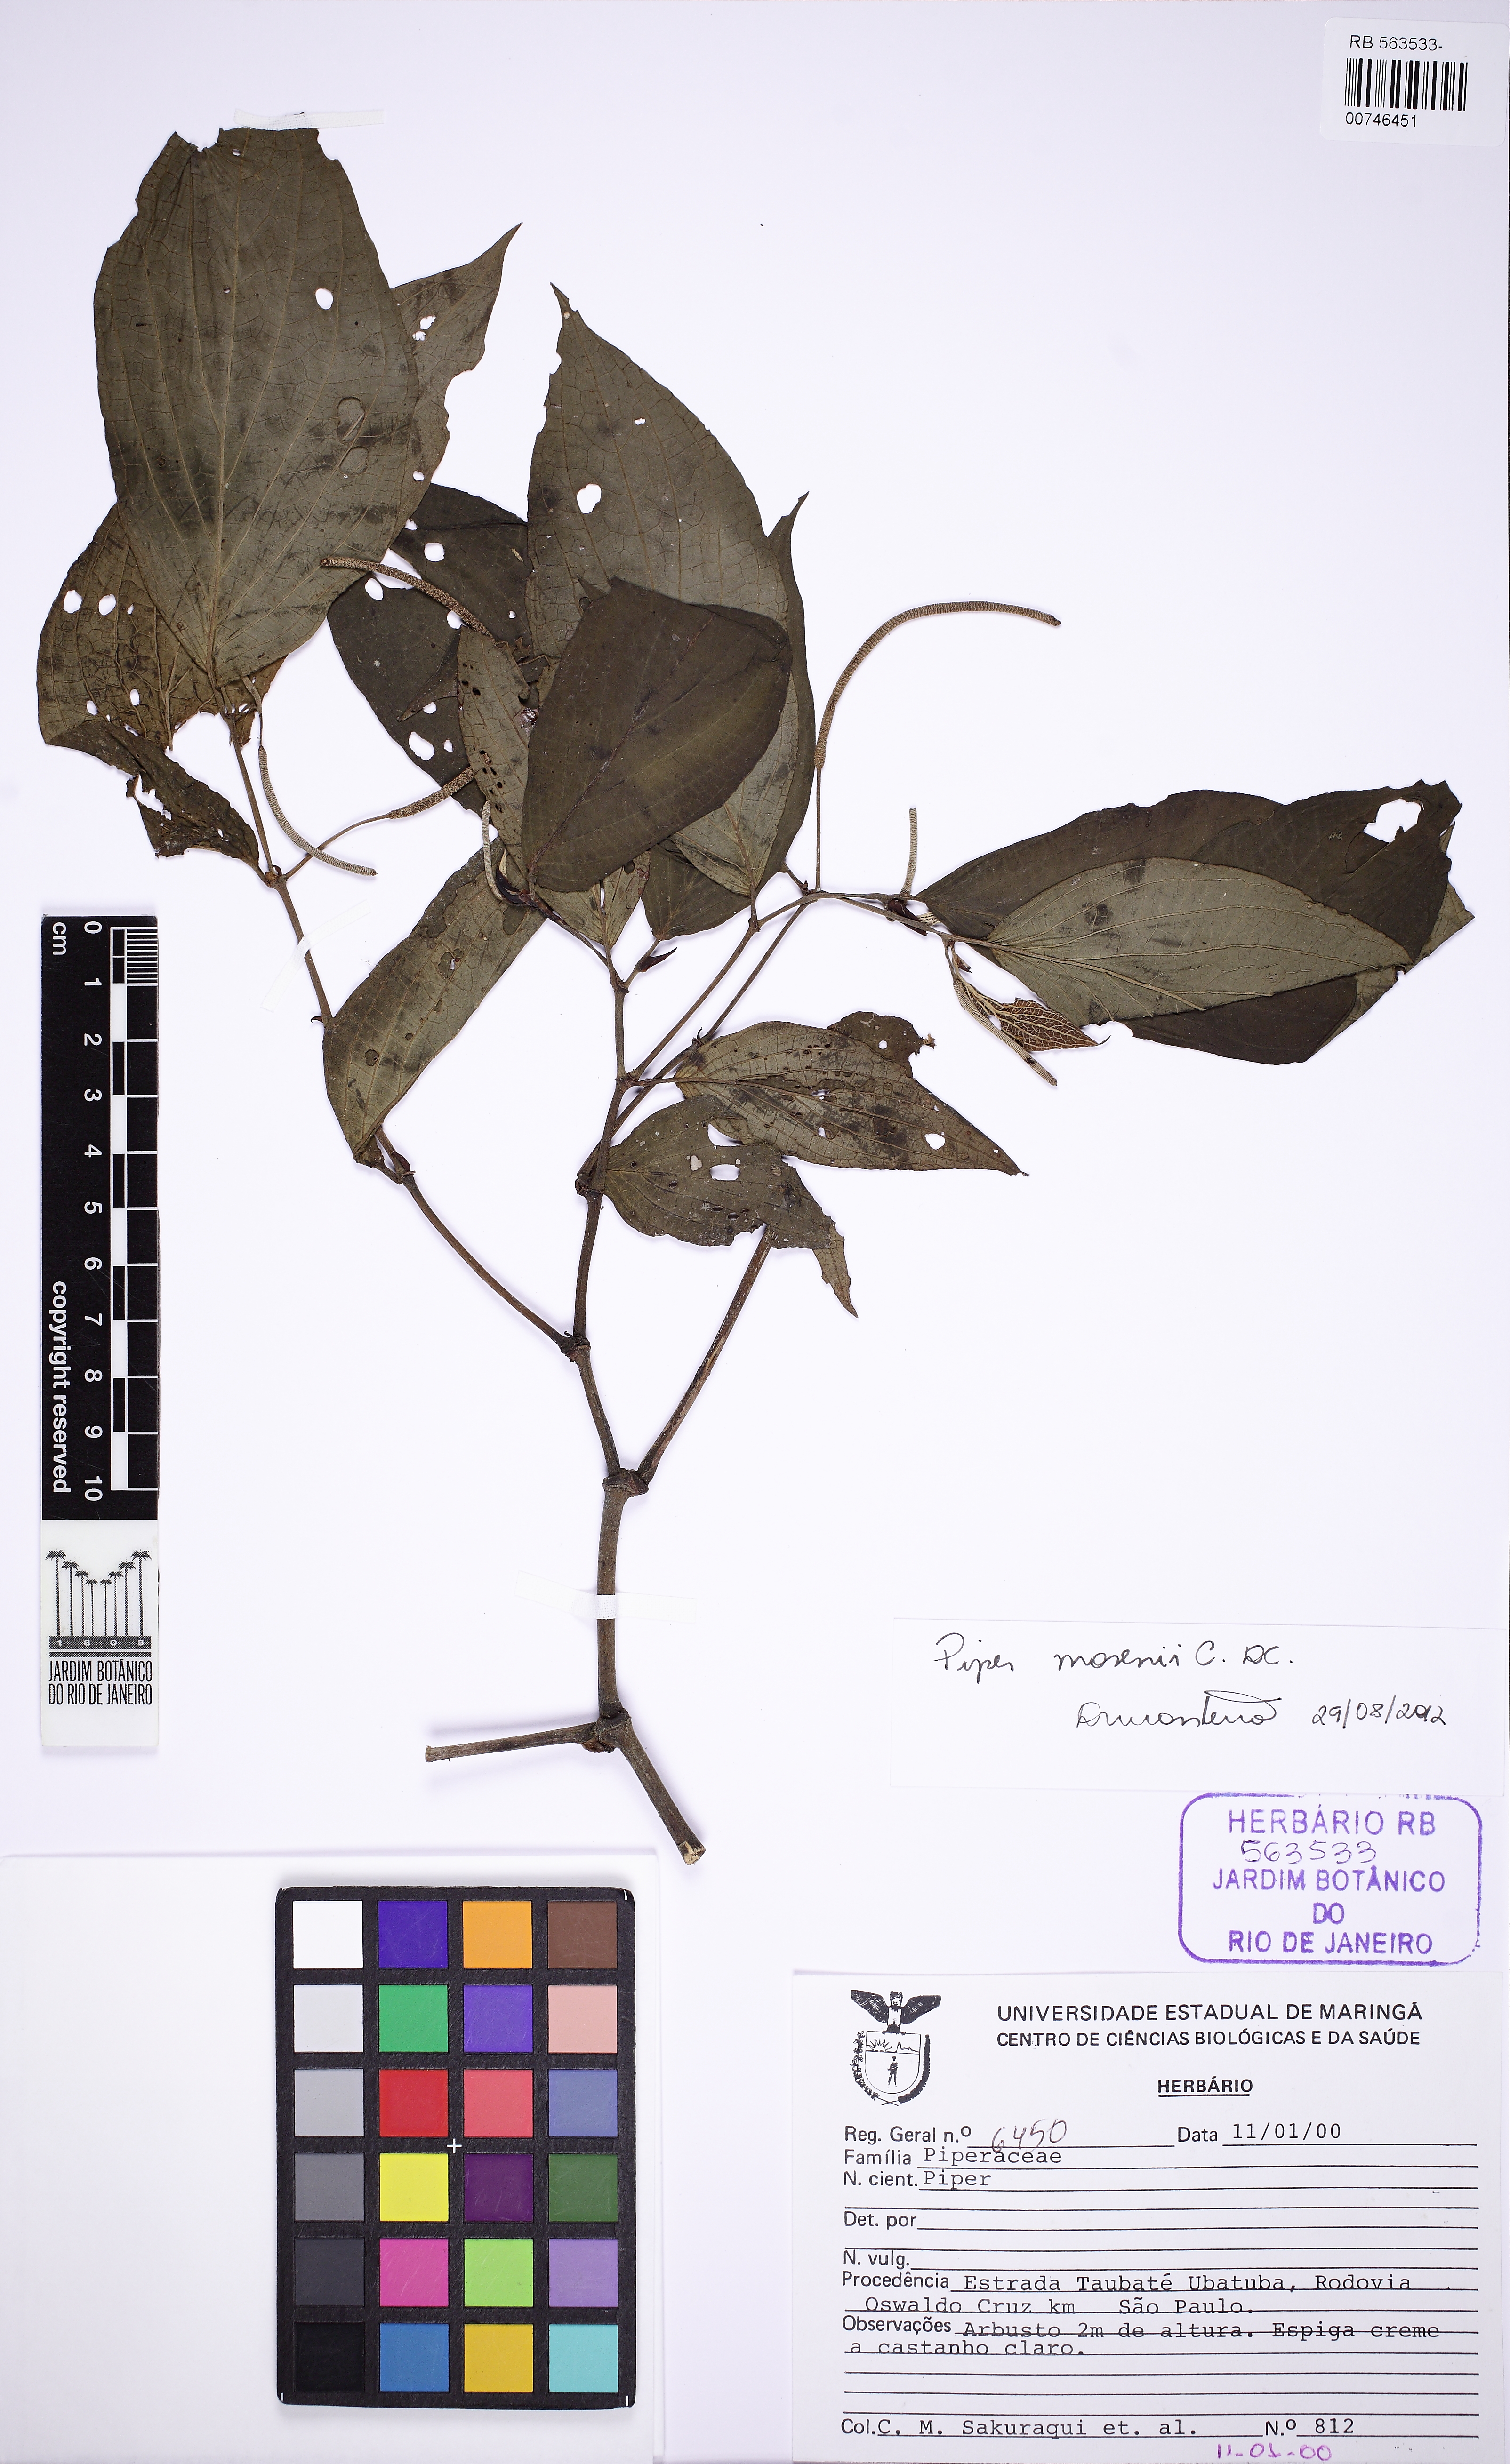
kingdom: Plantae
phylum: Tracheophyta
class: Magnoliopsida
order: Piperales
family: Piperaceae
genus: Piper
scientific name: Piper mosenii
